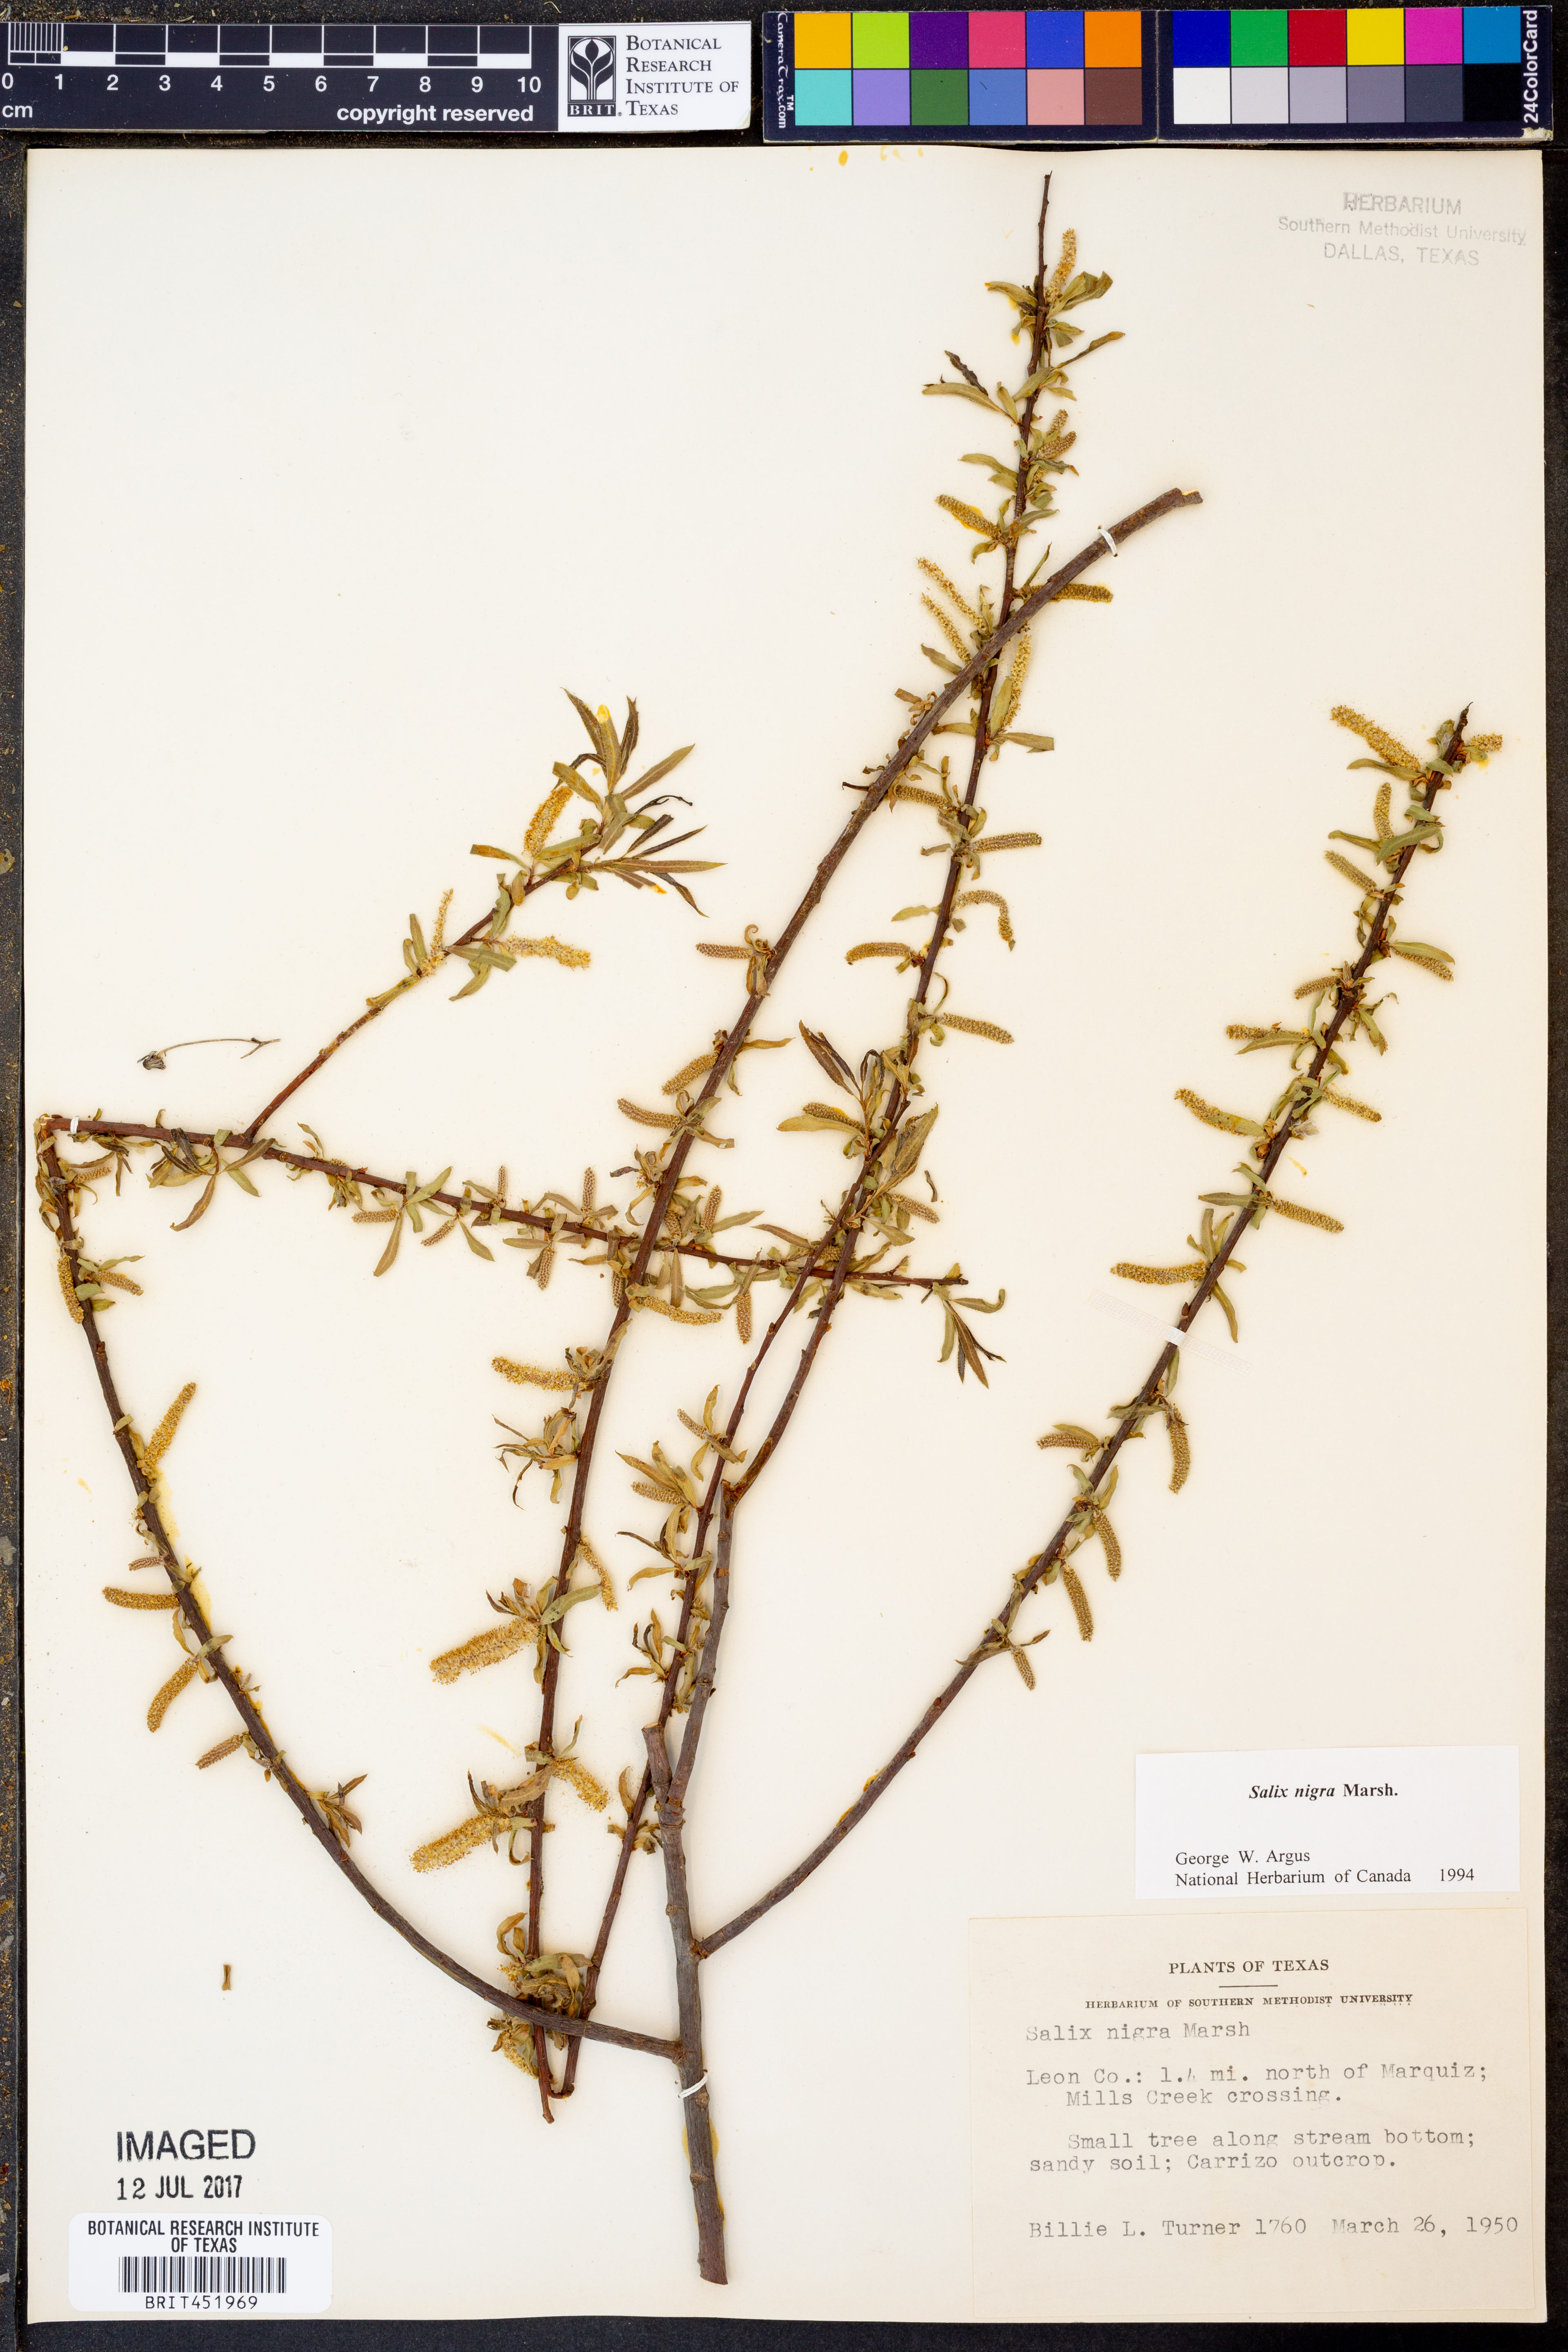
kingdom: Plantae
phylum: Tracheophyta
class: Magnoliopsida
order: Malpighiales
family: Salicaceae
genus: Salix
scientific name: Salix nigra
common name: Black willow
